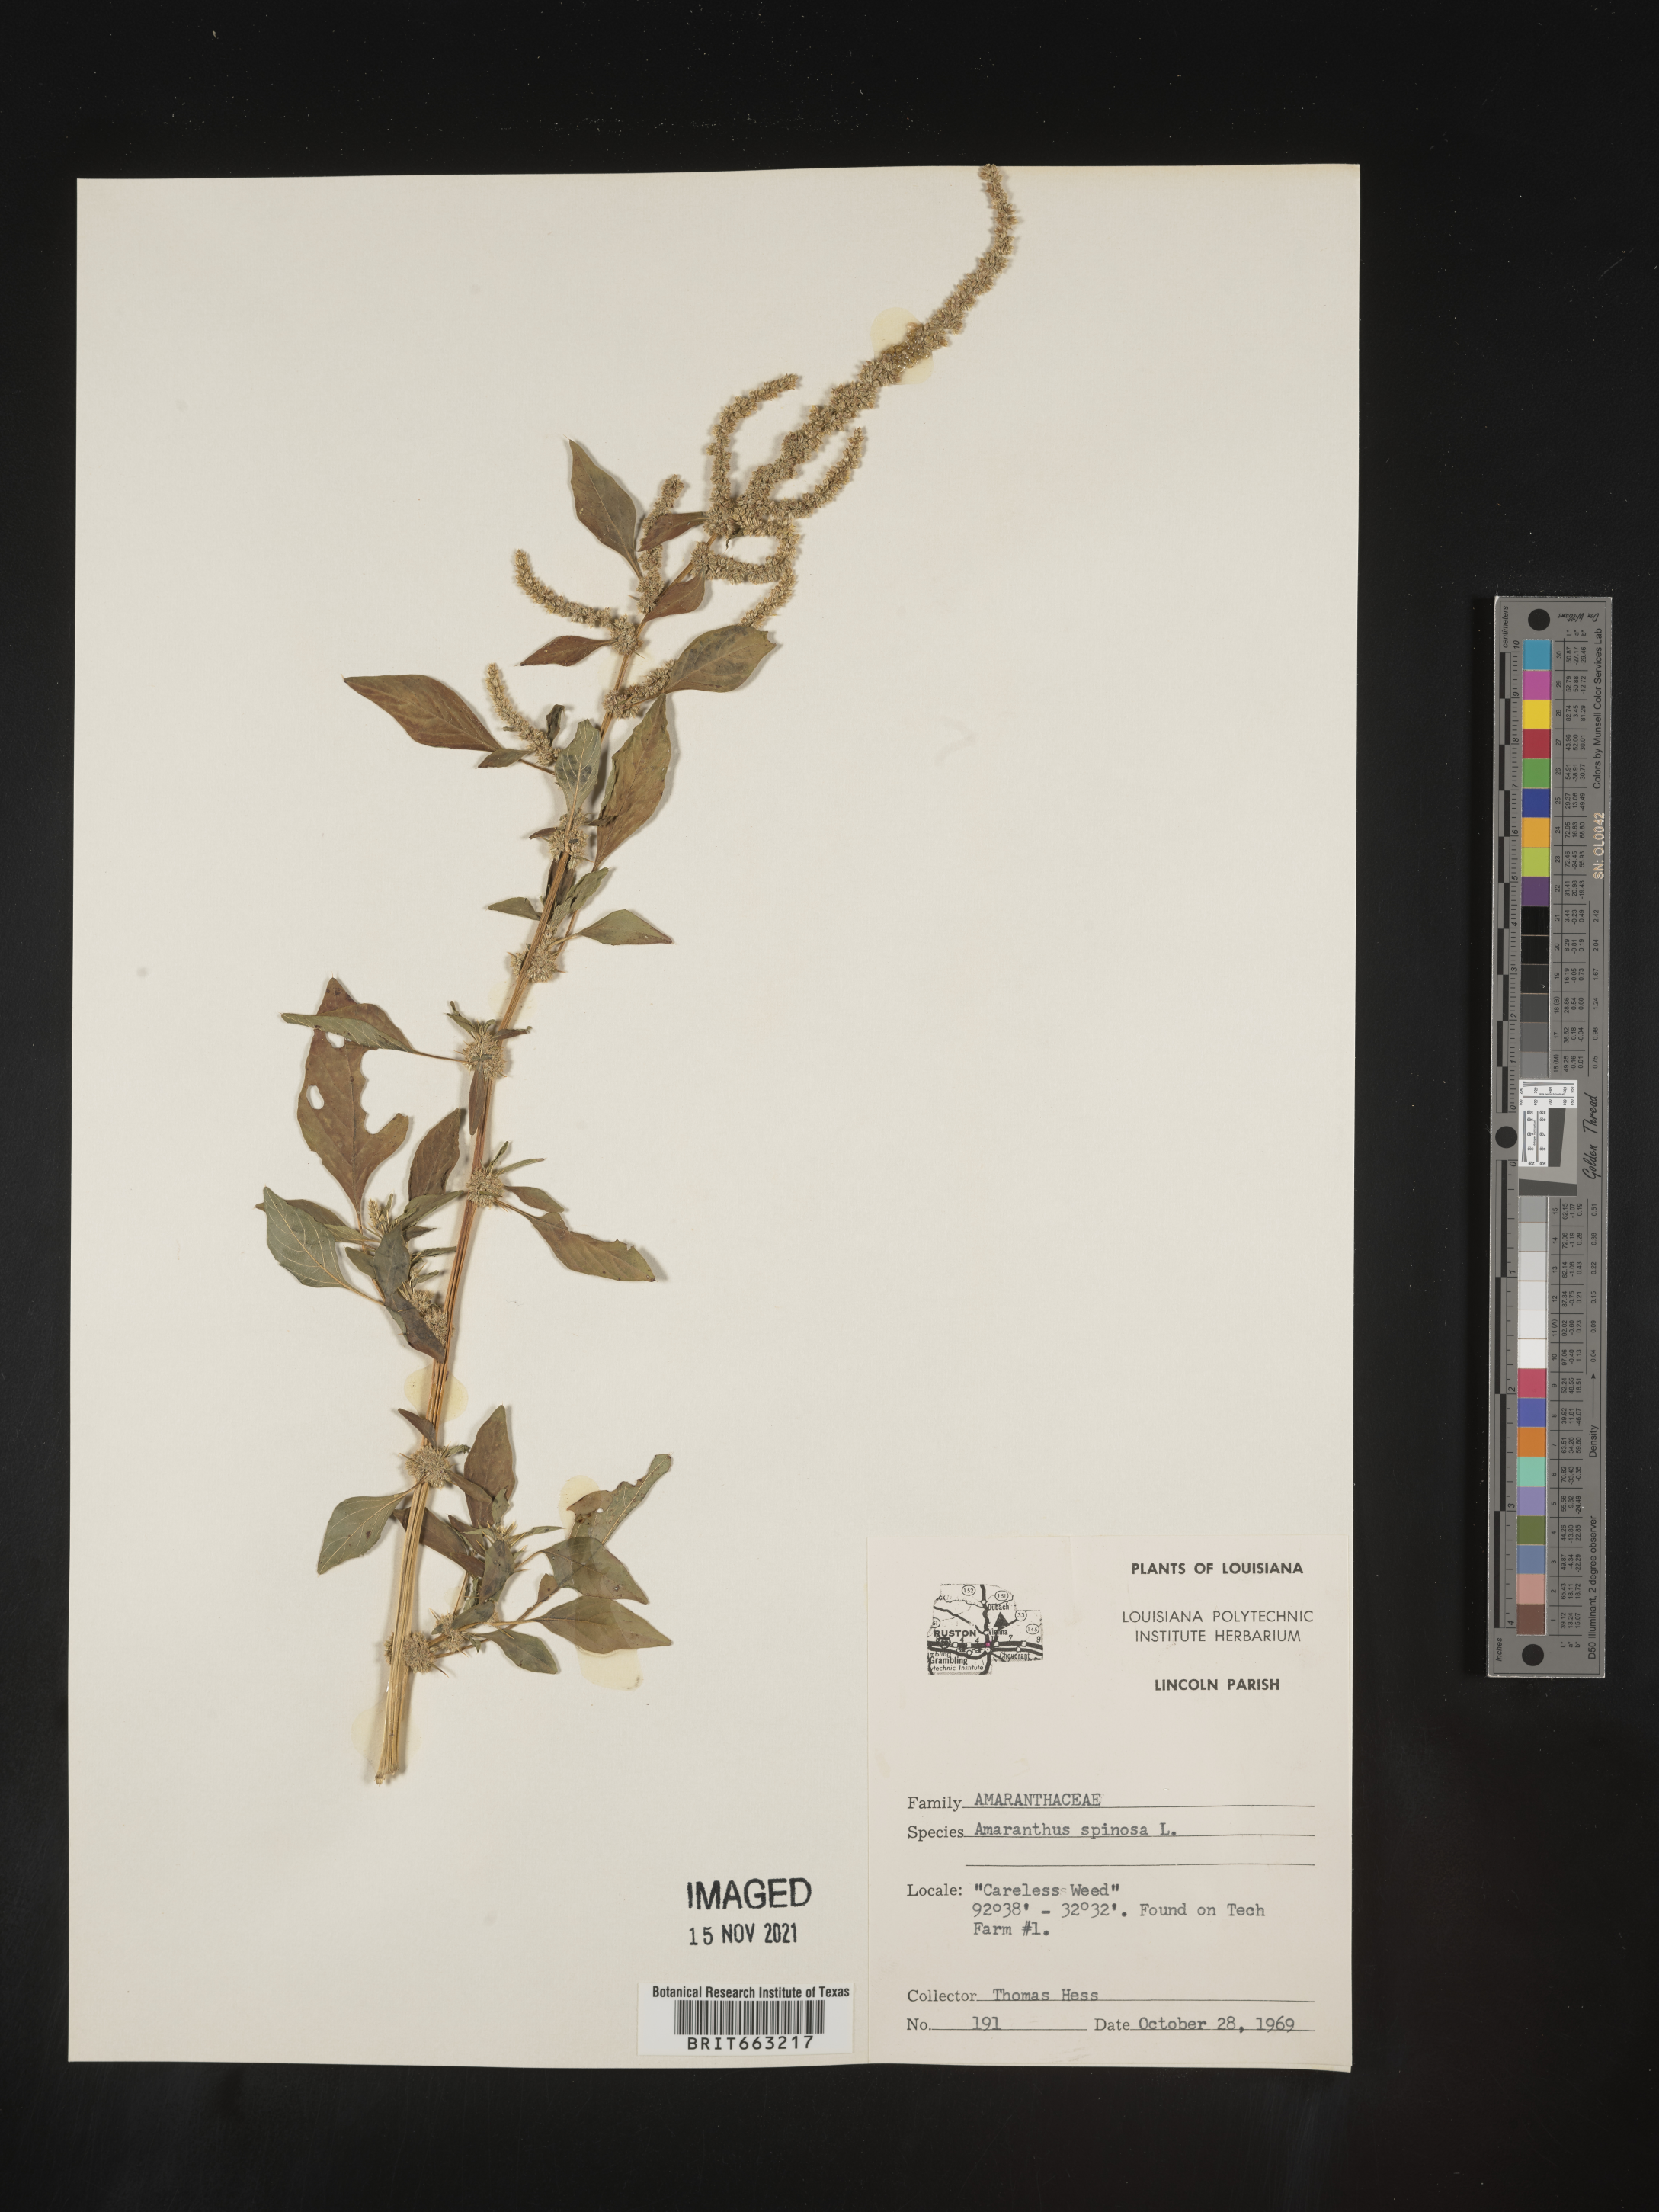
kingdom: Plantae
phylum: Tracheophyta
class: Magnoliopsida
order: Caryophyllales
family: Amaranthaceae
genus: Amaranthus
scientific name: Amaranthus spinosus
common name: Spiny amaranth
